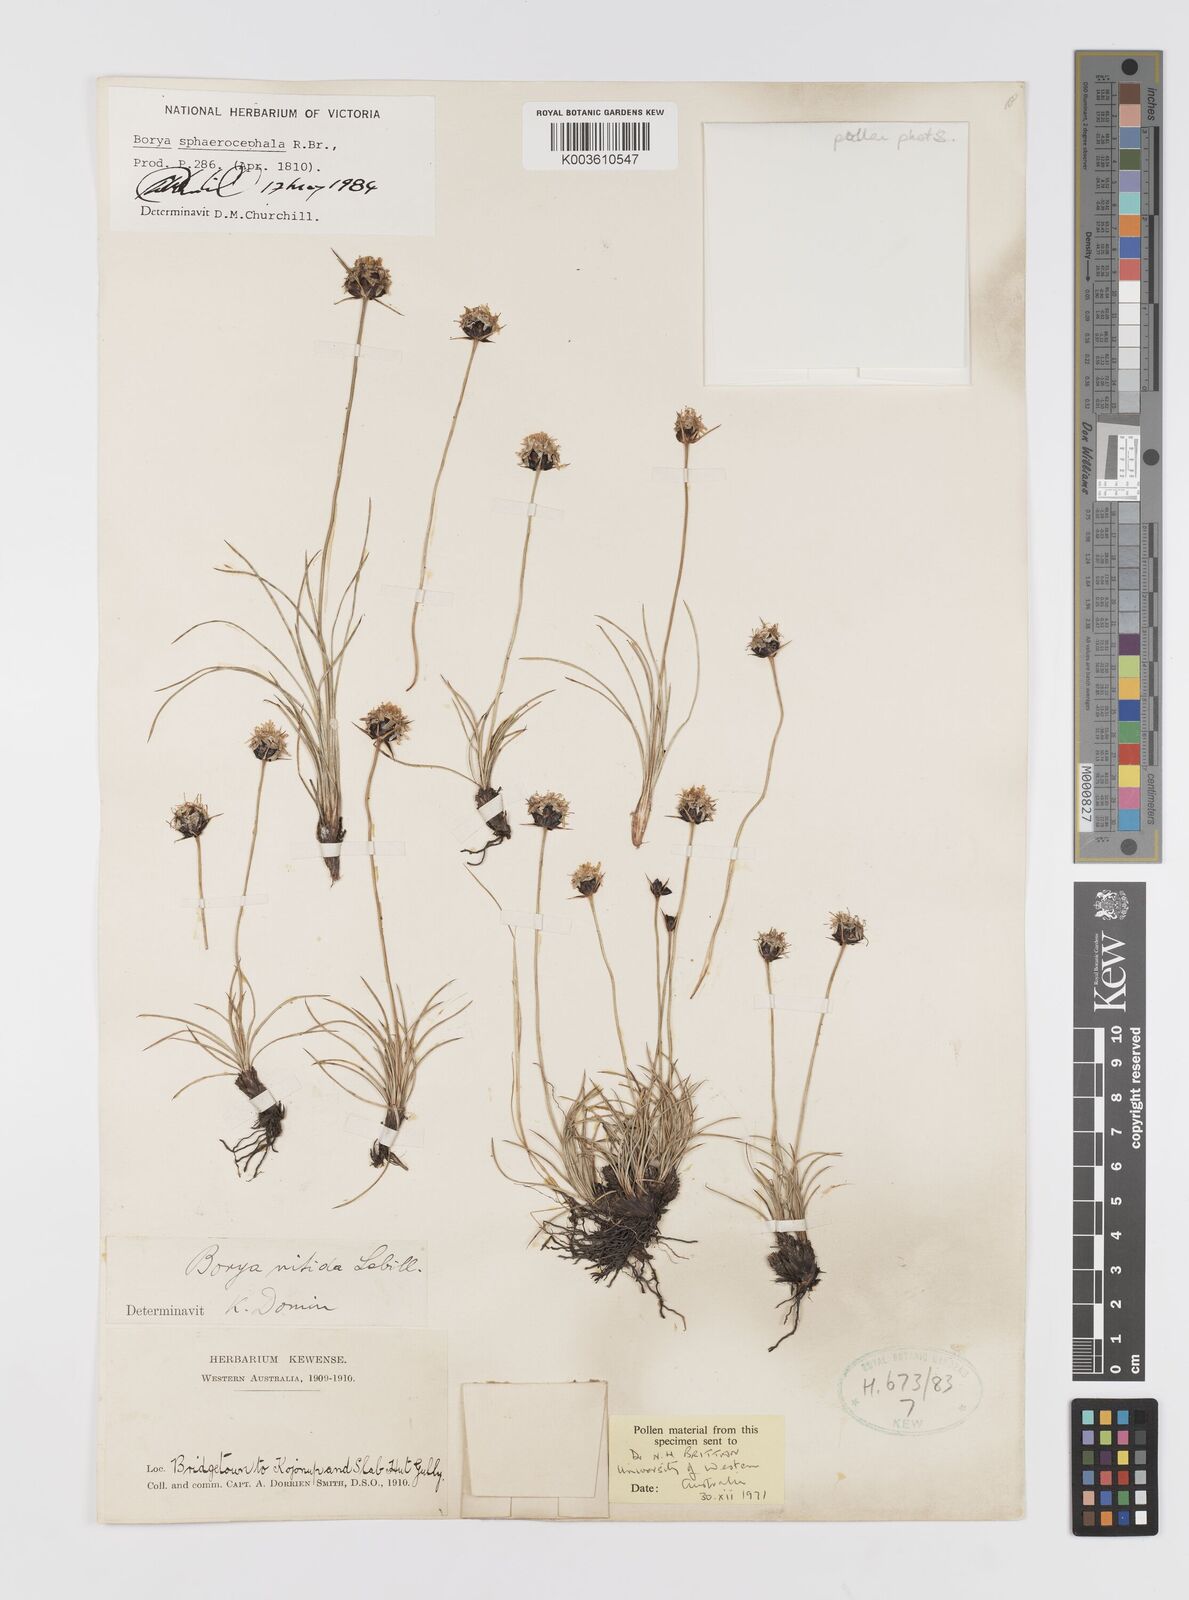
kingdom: Plantae
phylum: Tracheophyta
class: Liliopsida
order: Asparagales
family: Boryaceae
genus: Borya
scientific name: Borya sphaerocephala
